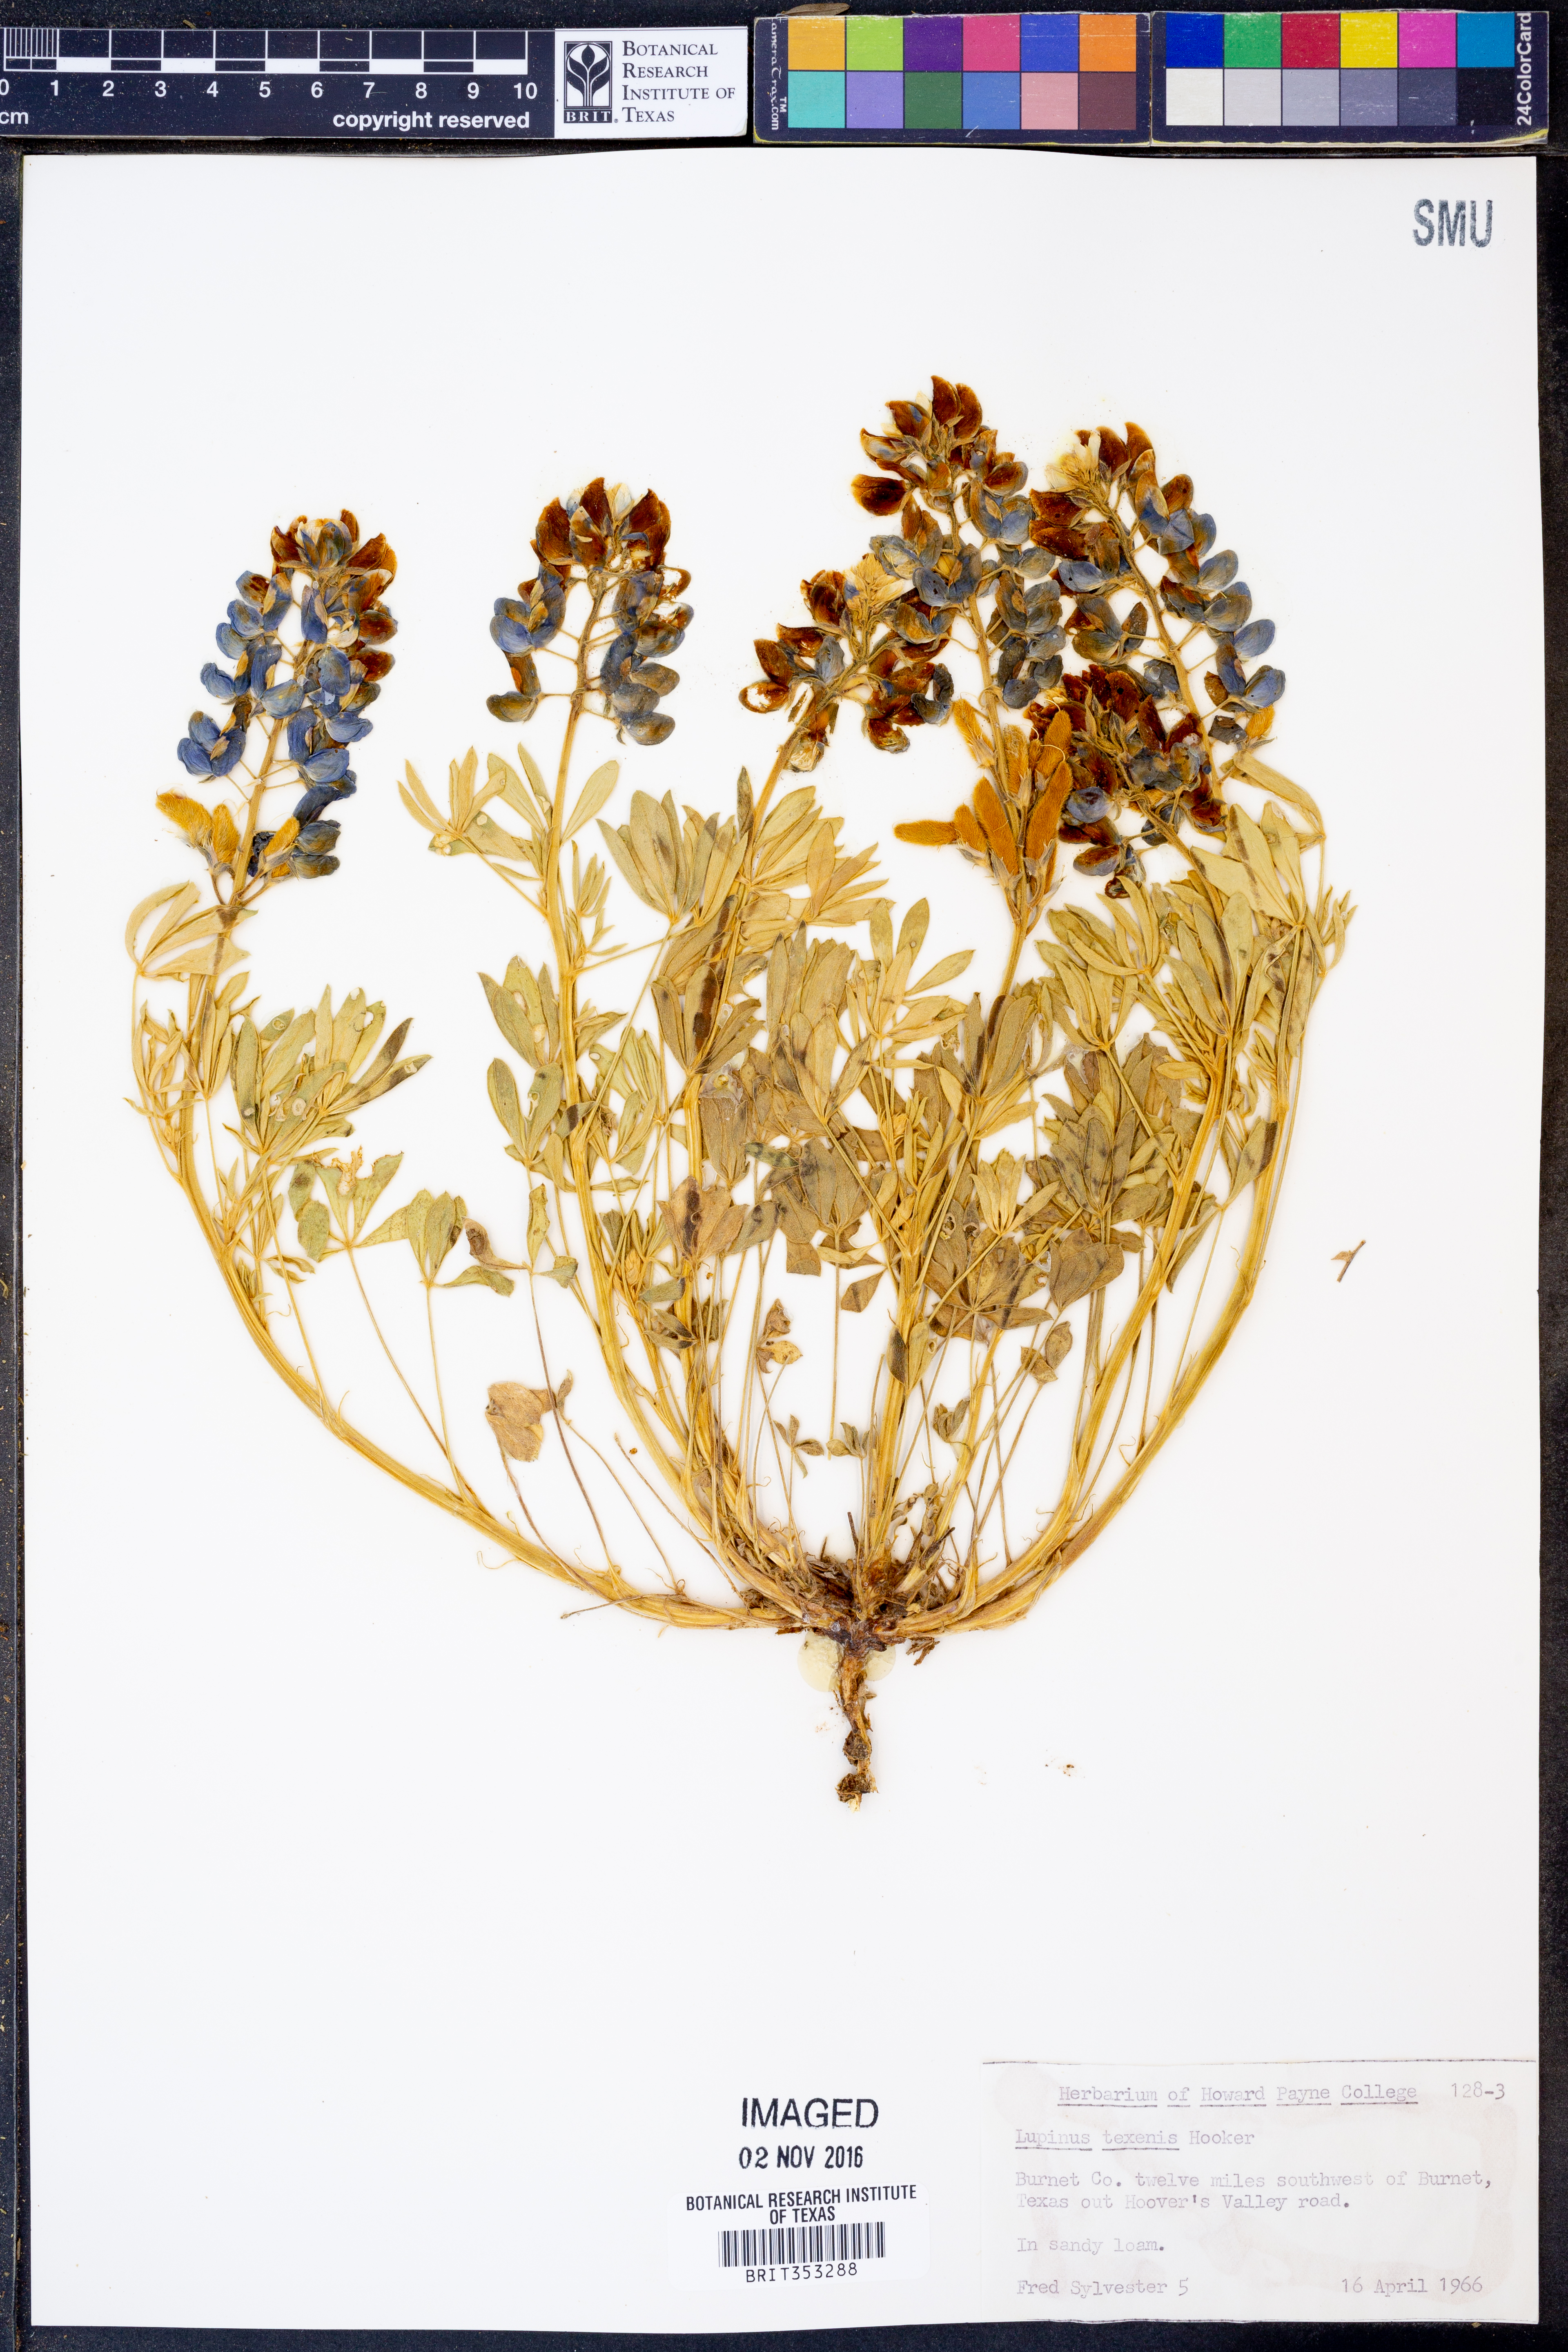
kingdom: Plantae
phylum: Tracheophyta
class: Magnoliopsida
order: Fabales
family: Fabaceae
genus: Lupinus
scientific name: Lupinus texensis
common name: Texas bluebonnet
